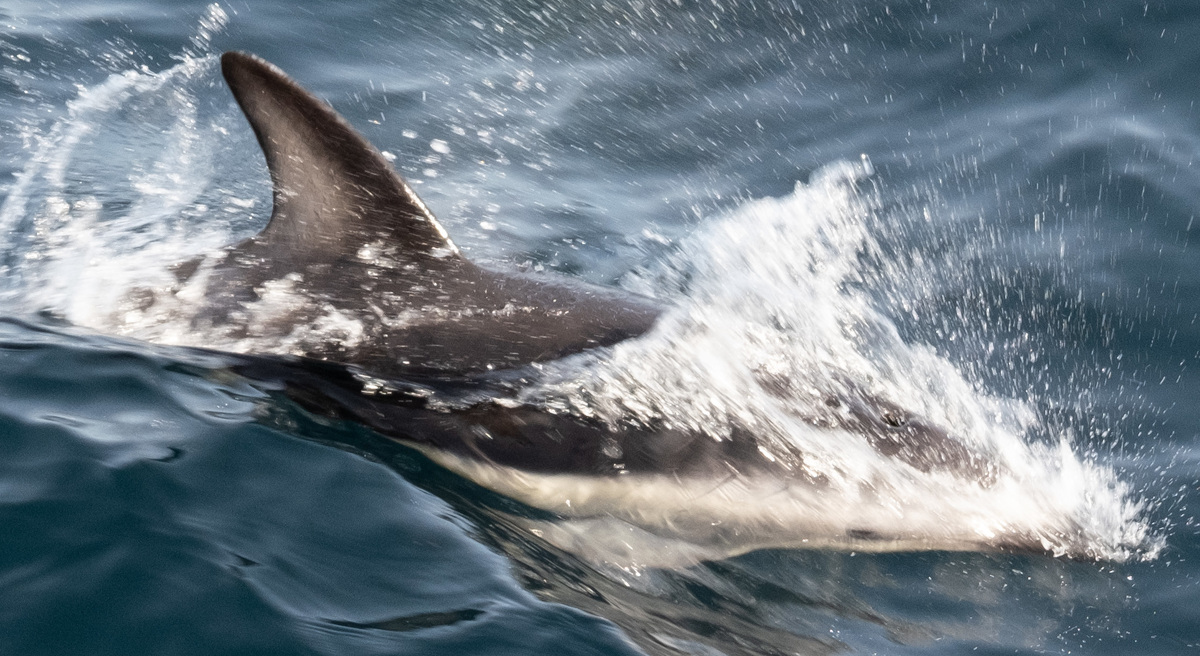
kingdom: Animalia
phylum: Chordata
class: Mammalia
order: Cetacea
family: Delphinidae
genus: Lagenorhynchus
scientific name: Lagenorhynchus obscurus
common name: Dusky dolphin
